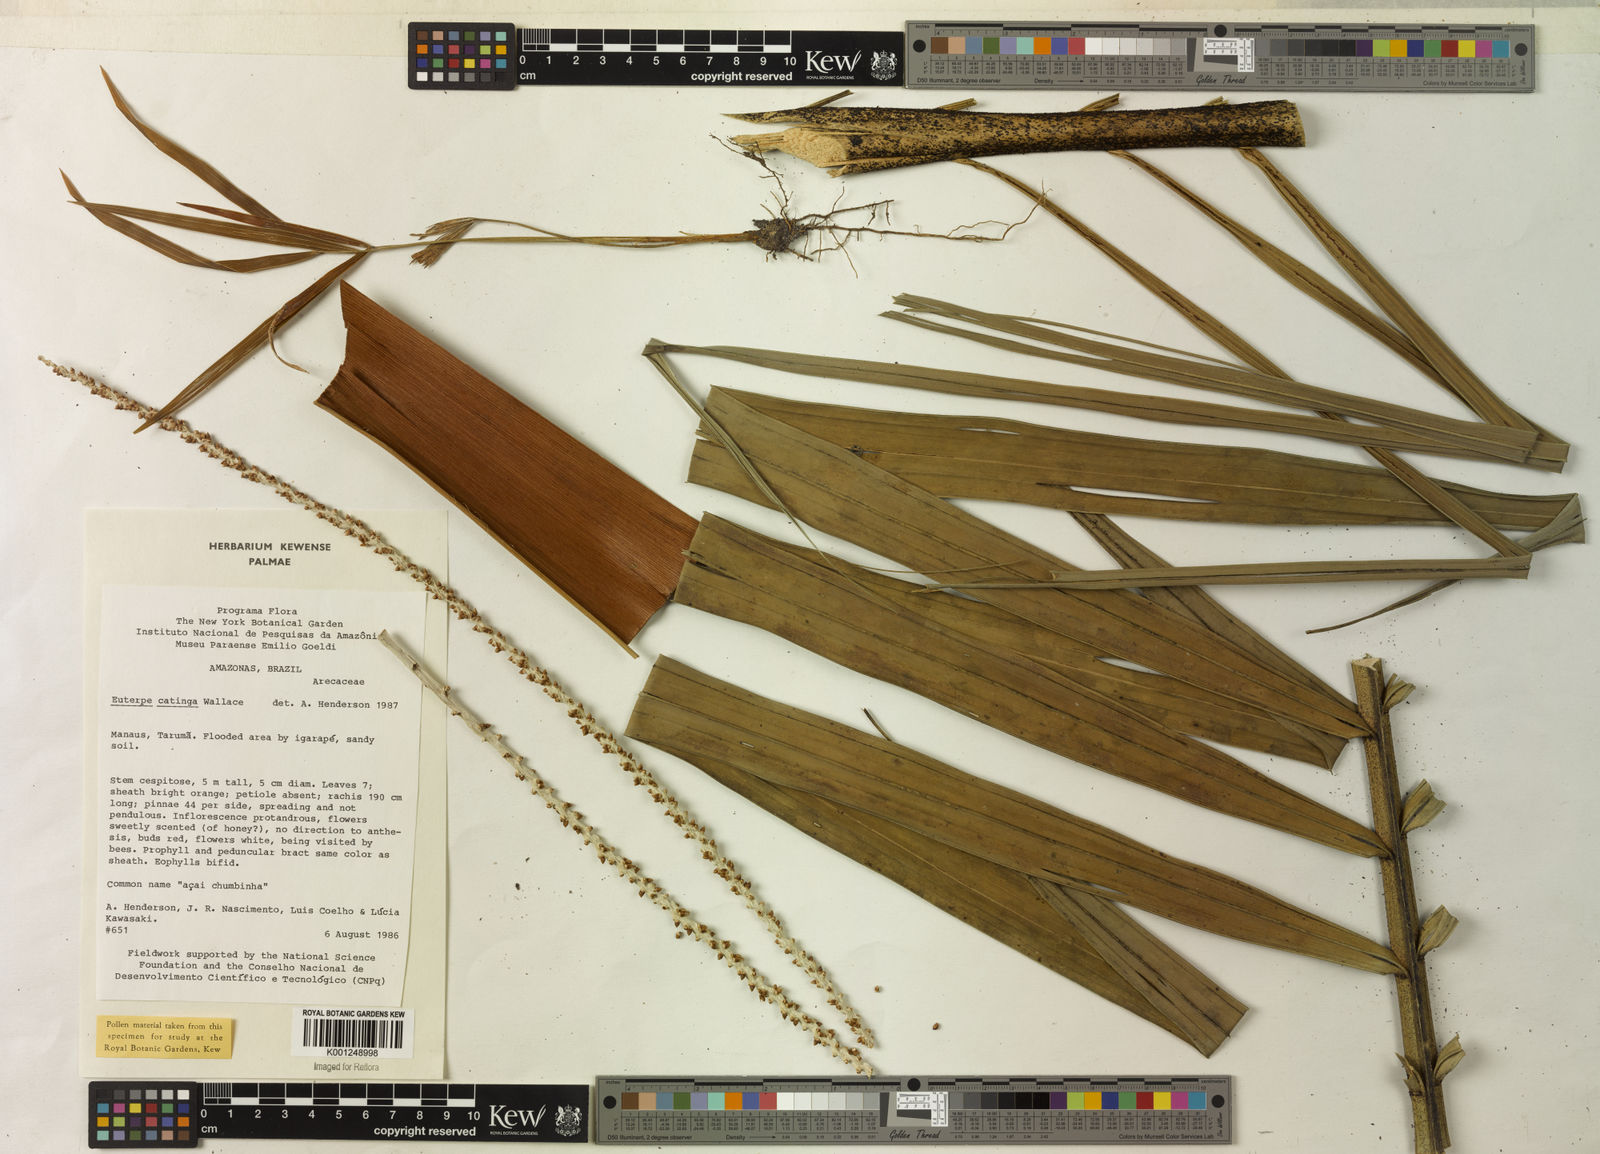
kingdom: Plantae
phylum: Tracheophyta
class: Liliopsida
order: Arecales
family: Arecaceae
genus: Euterpe
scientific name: Euterpe catinga
